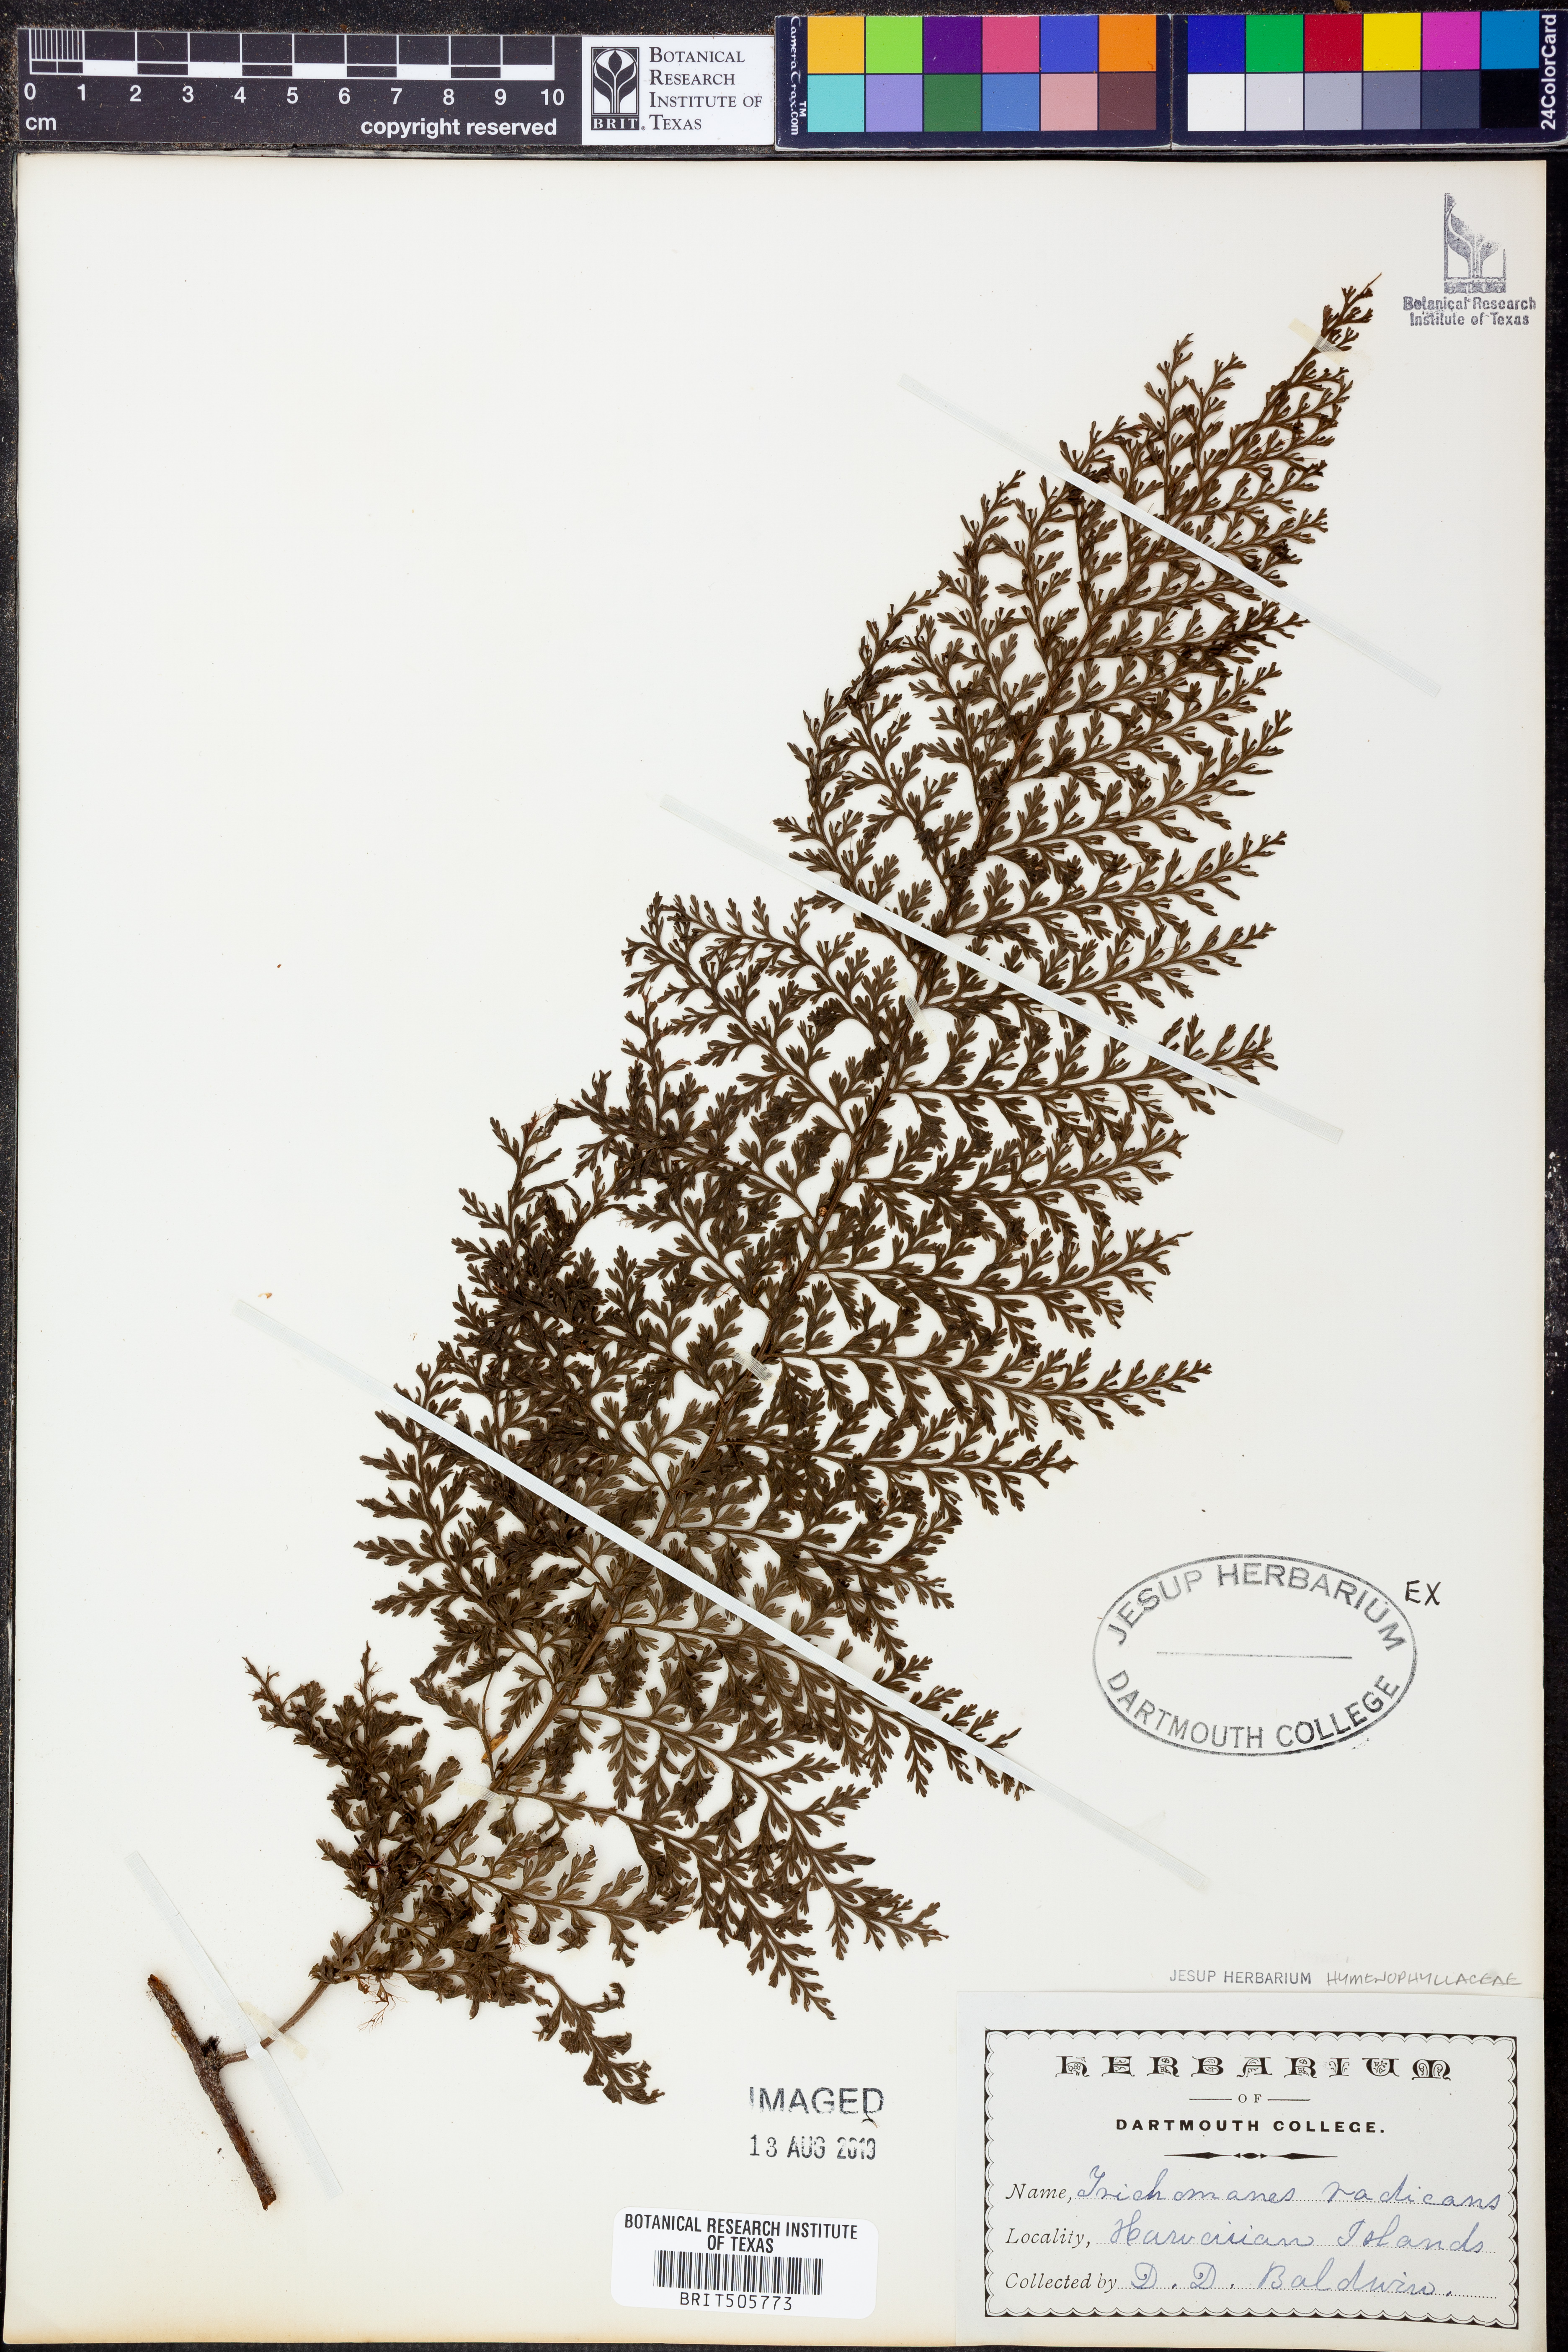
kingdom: Plantae
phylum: Tracheophyta
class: Polypodiopsida
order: Hymenophyllales
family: Hymenophyllaceae
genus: Vandenboschia
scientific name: Vandenboschia radicans
